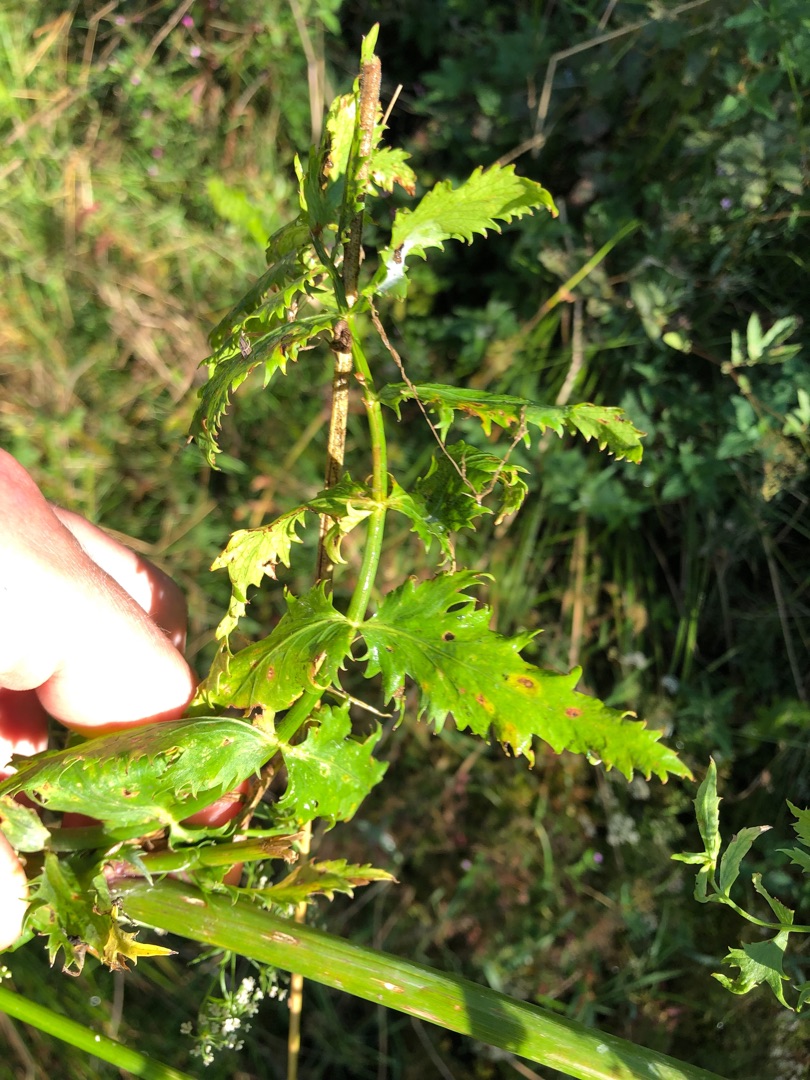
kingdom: Plantae
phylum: Tracheophyta
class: Magnoliopsida
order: Apiales
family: Apiaceae
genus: Berula
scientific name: Berula erecta
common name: Sideskærm
